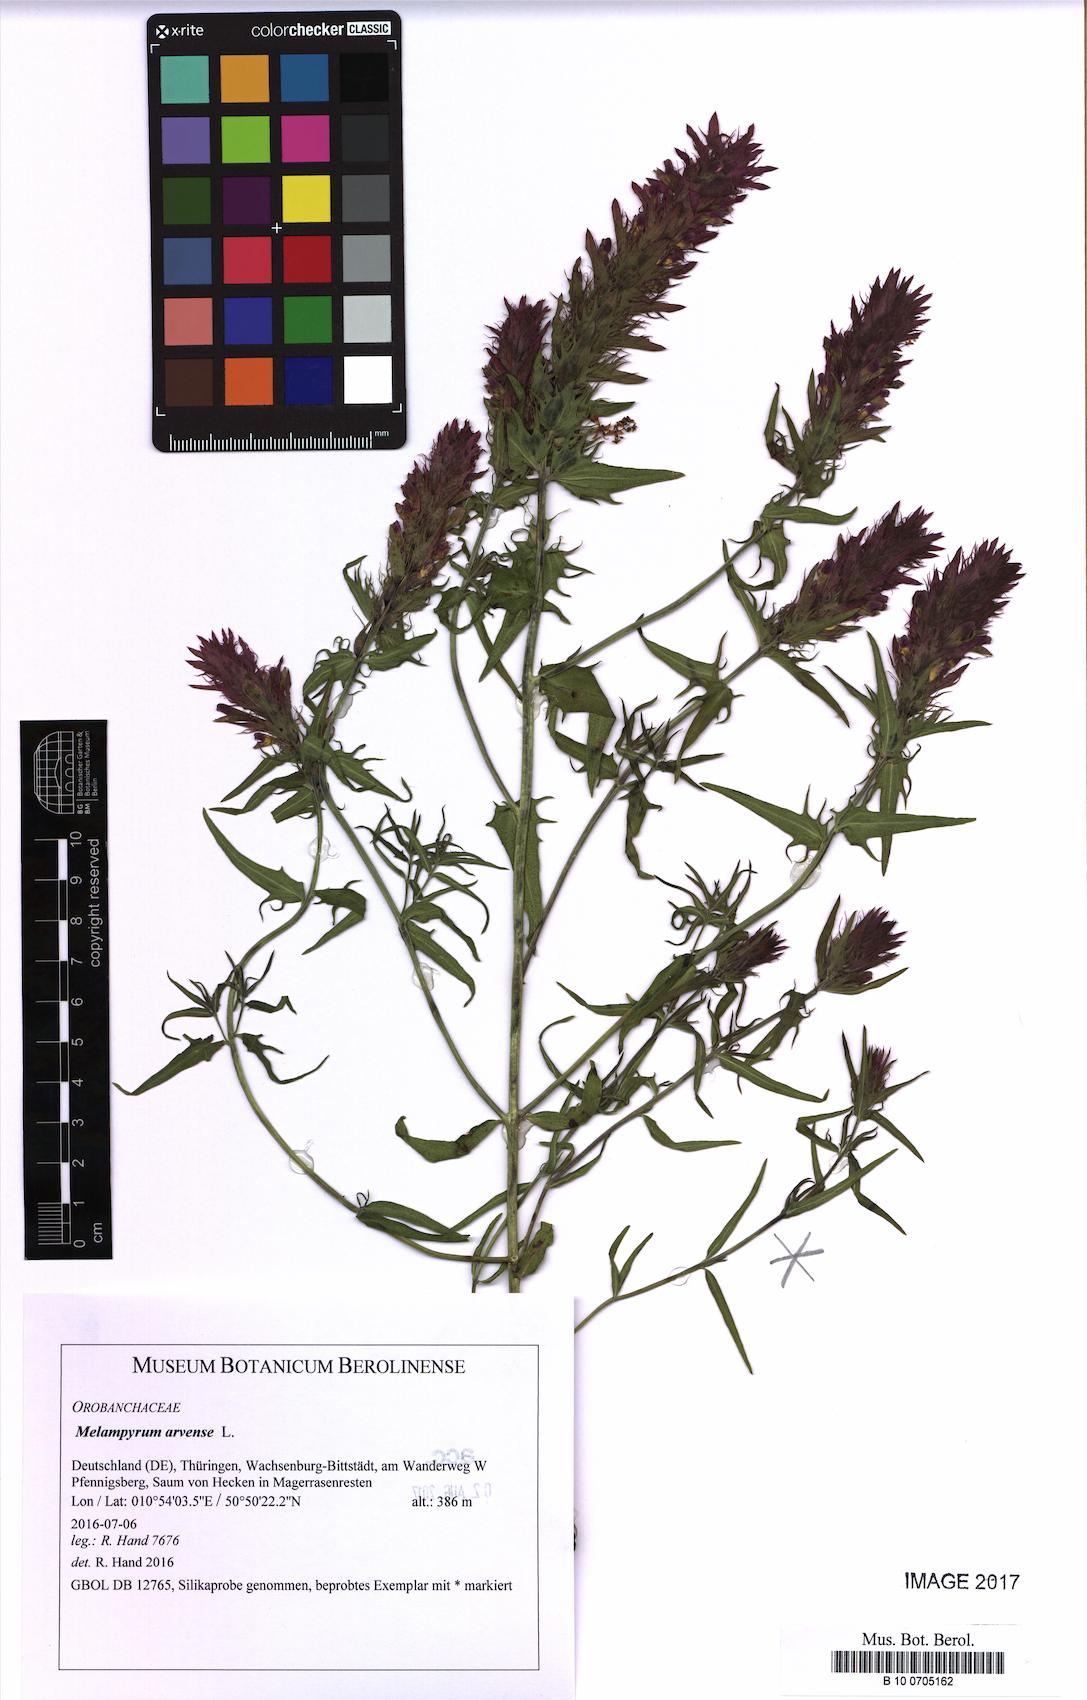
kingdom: Plantae
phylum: Tracheophyta
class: Magnoliopsida
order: Lamiales
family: Orobanchaceae
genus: Melampyrum
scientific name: Melampyrum arvense
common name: Field cow-wheat
